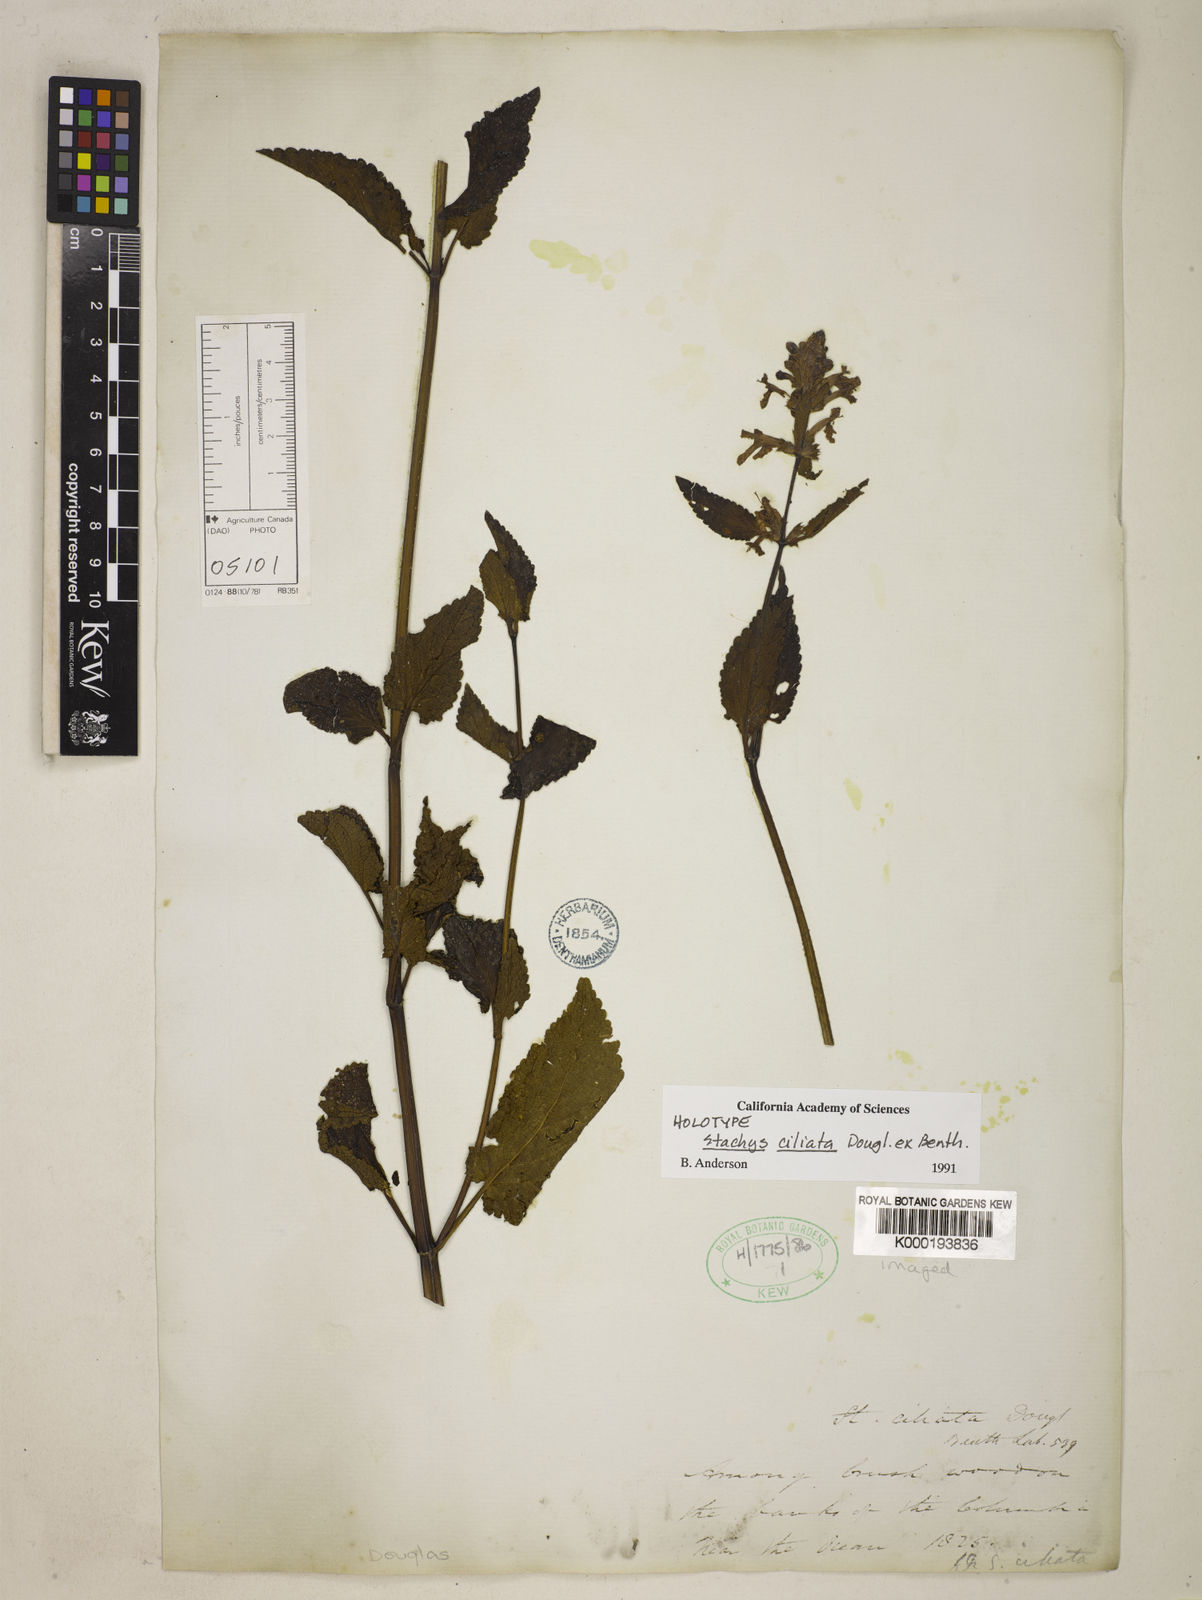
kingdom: Plantae
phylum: Tracheophyta
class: Magnoliopsida
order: Lamiales
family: Lamiaceae
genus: Stachys
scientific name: Stachys mexicana
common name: Mexican hedge-nettle
